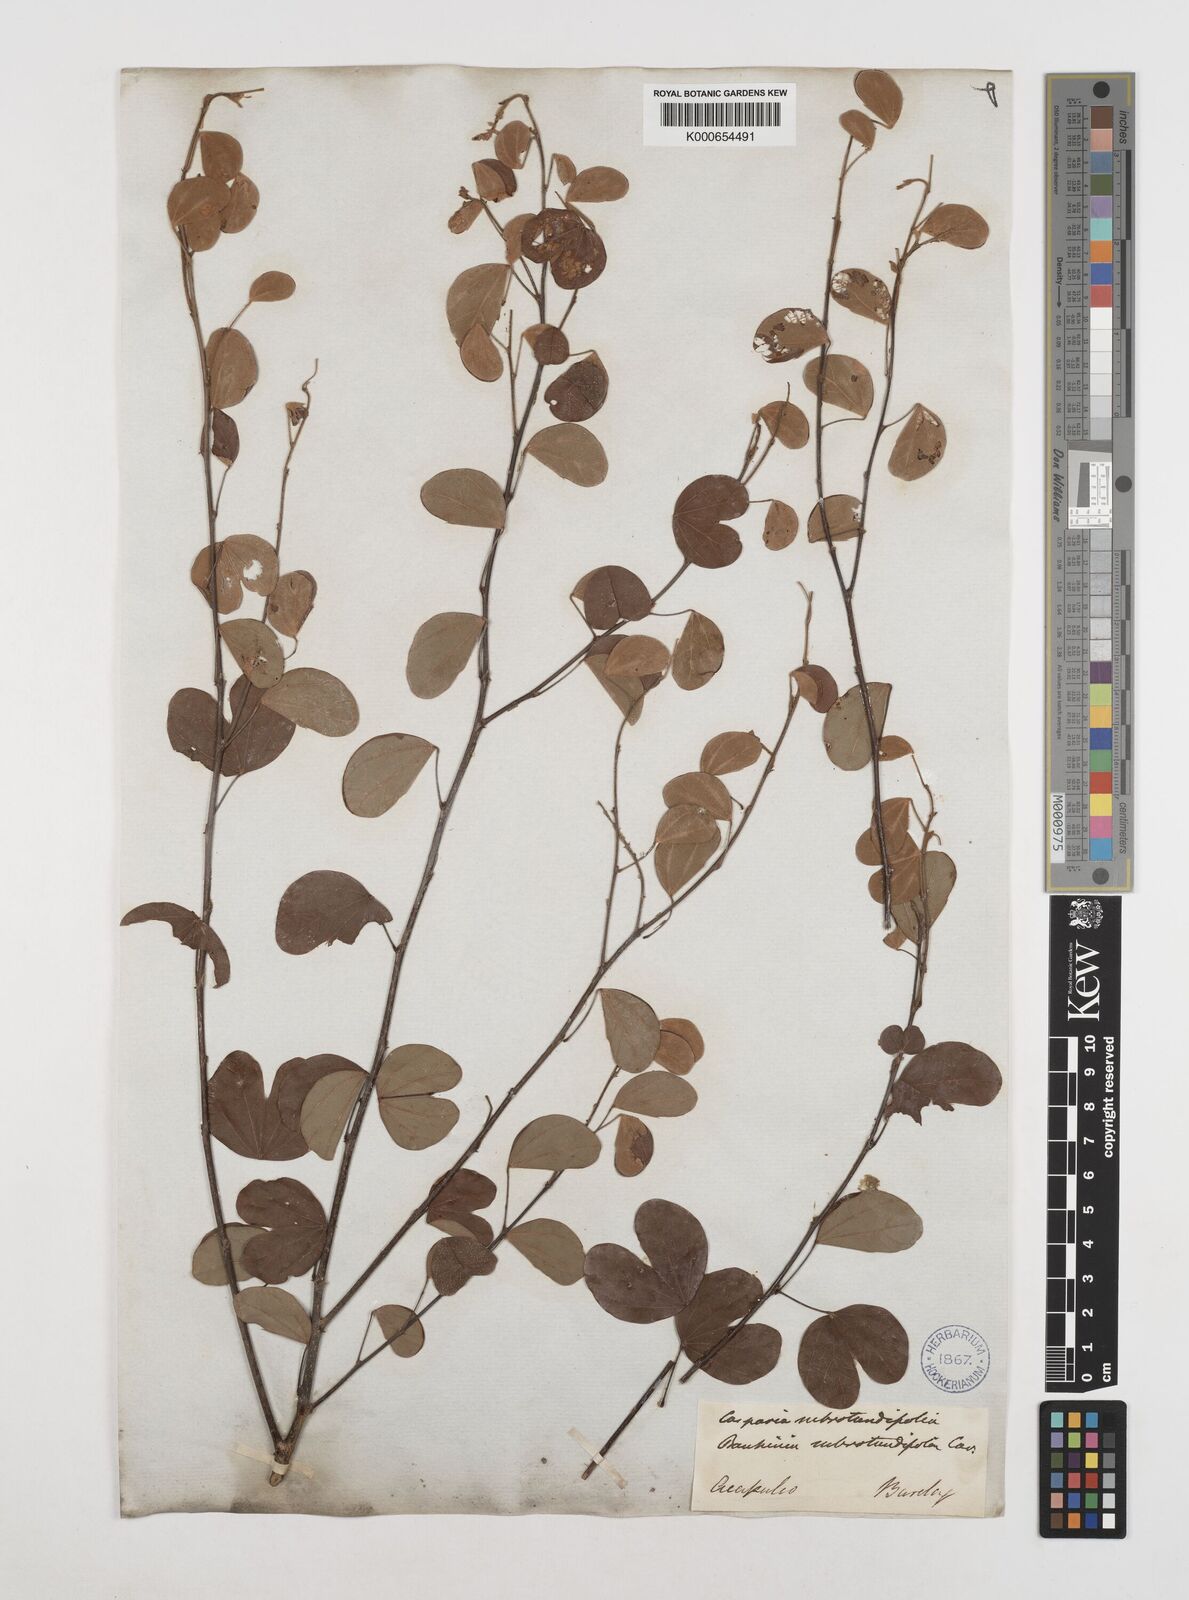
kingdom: Plantae
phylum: Tracheophyta
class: Magnoliopsida
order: Fabales
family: Fabaceae
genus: Bauhinia
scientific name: Bauhinia subrotundifolia
